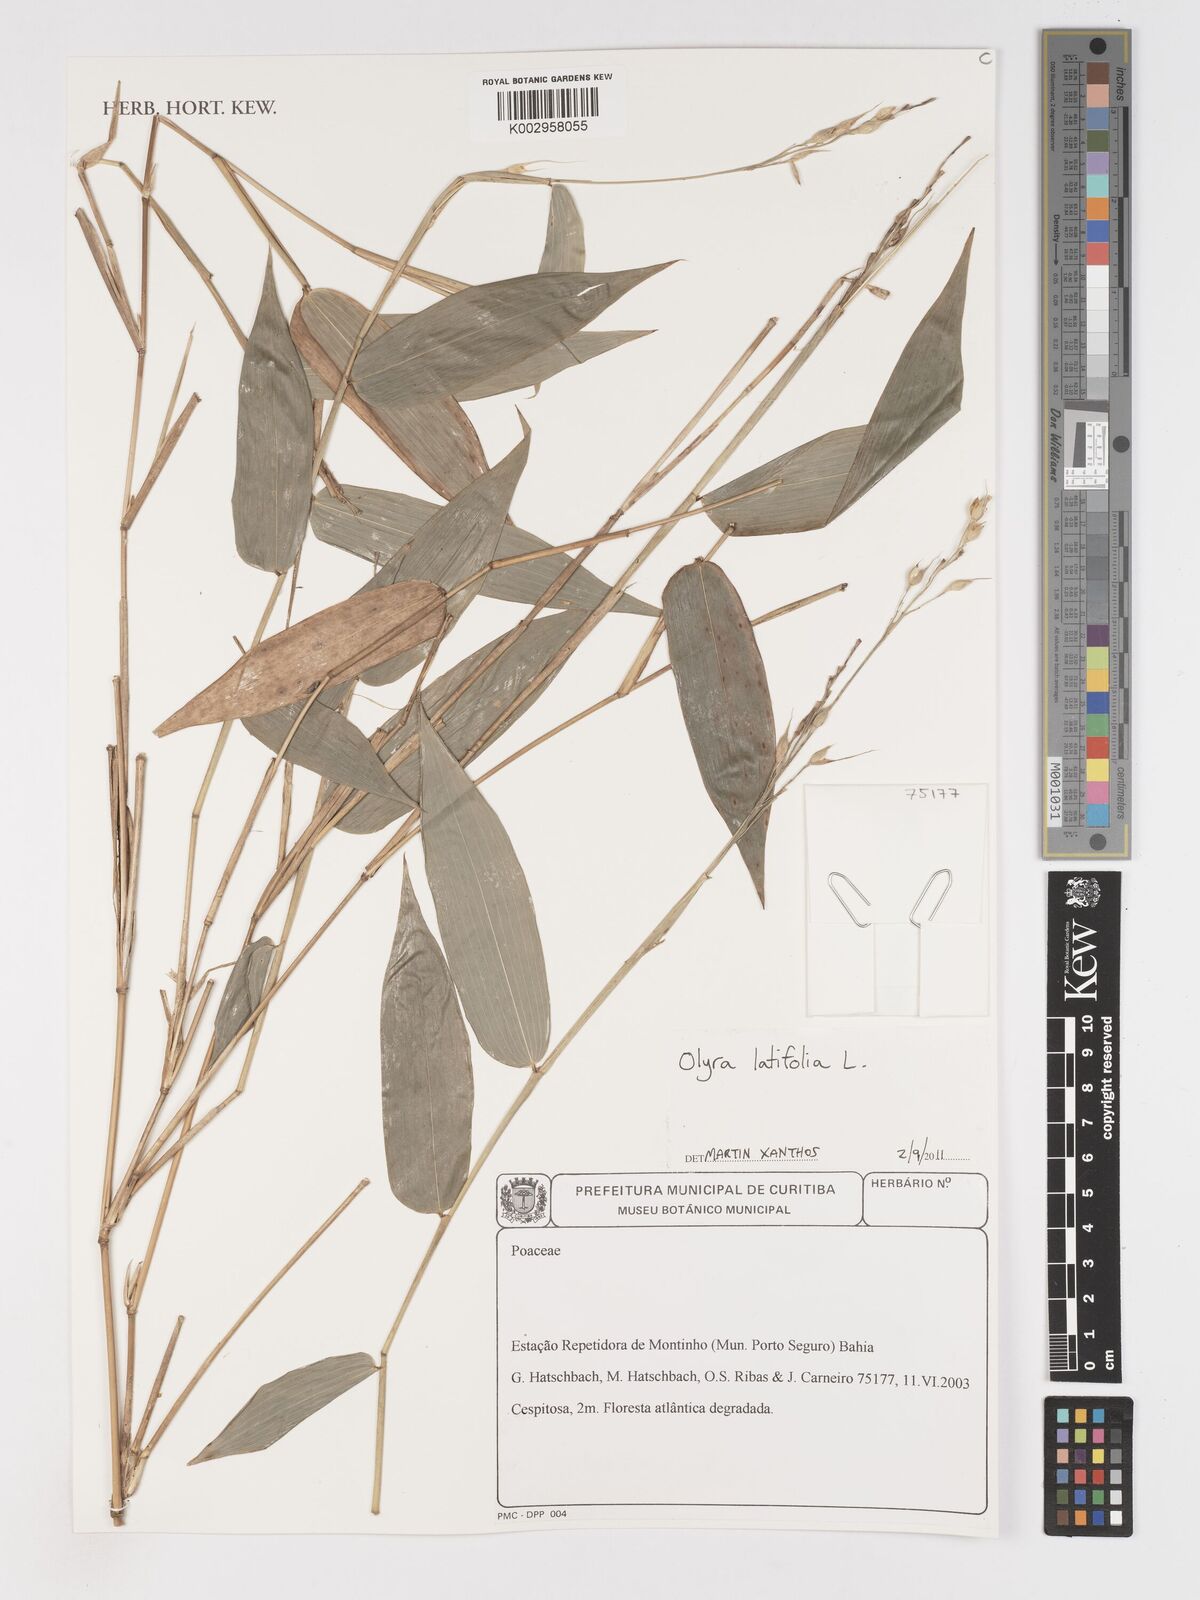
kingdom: Plantae
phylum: Tracheophyta
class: Liliopsida
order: Poales
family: Poaceae
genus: Olyra
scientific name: Olyra latifolia
